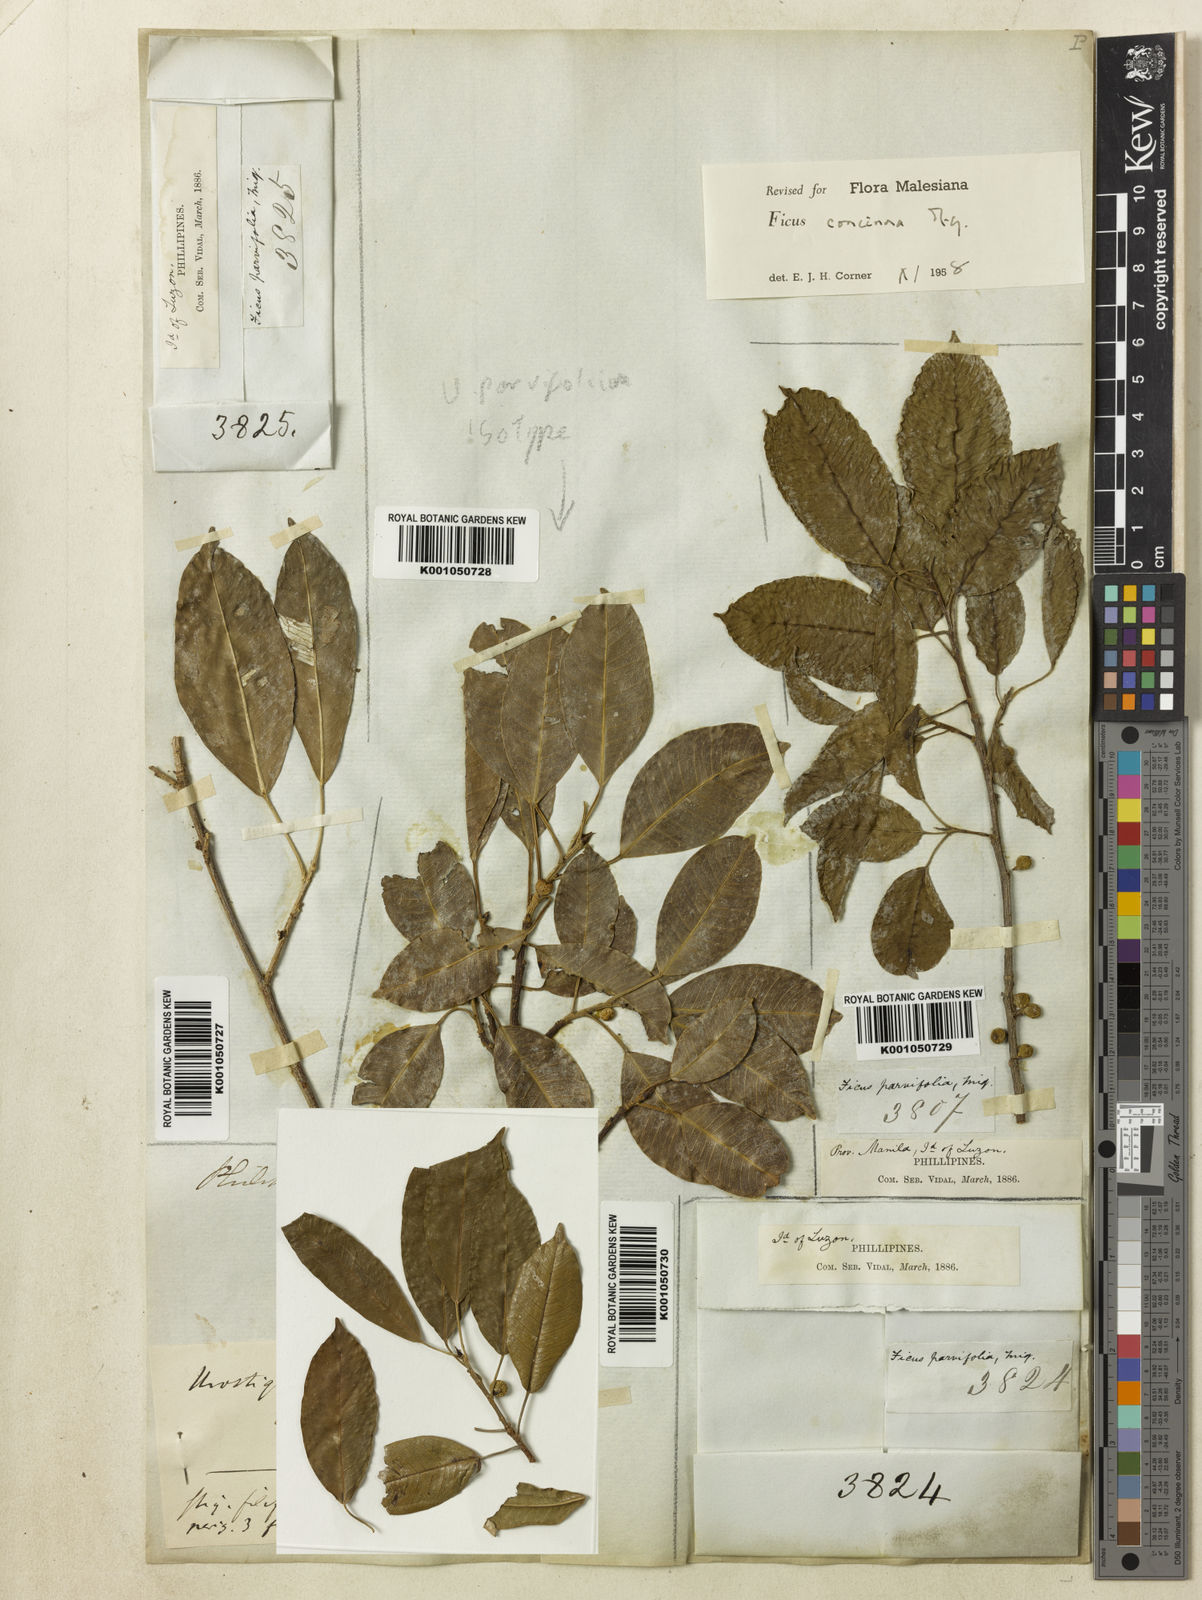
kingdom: Plantae
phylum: Tracheophyta
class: Magnoliopsida
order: Rosales
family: Moraceae
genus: Ficus
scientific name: Ficus concinna
